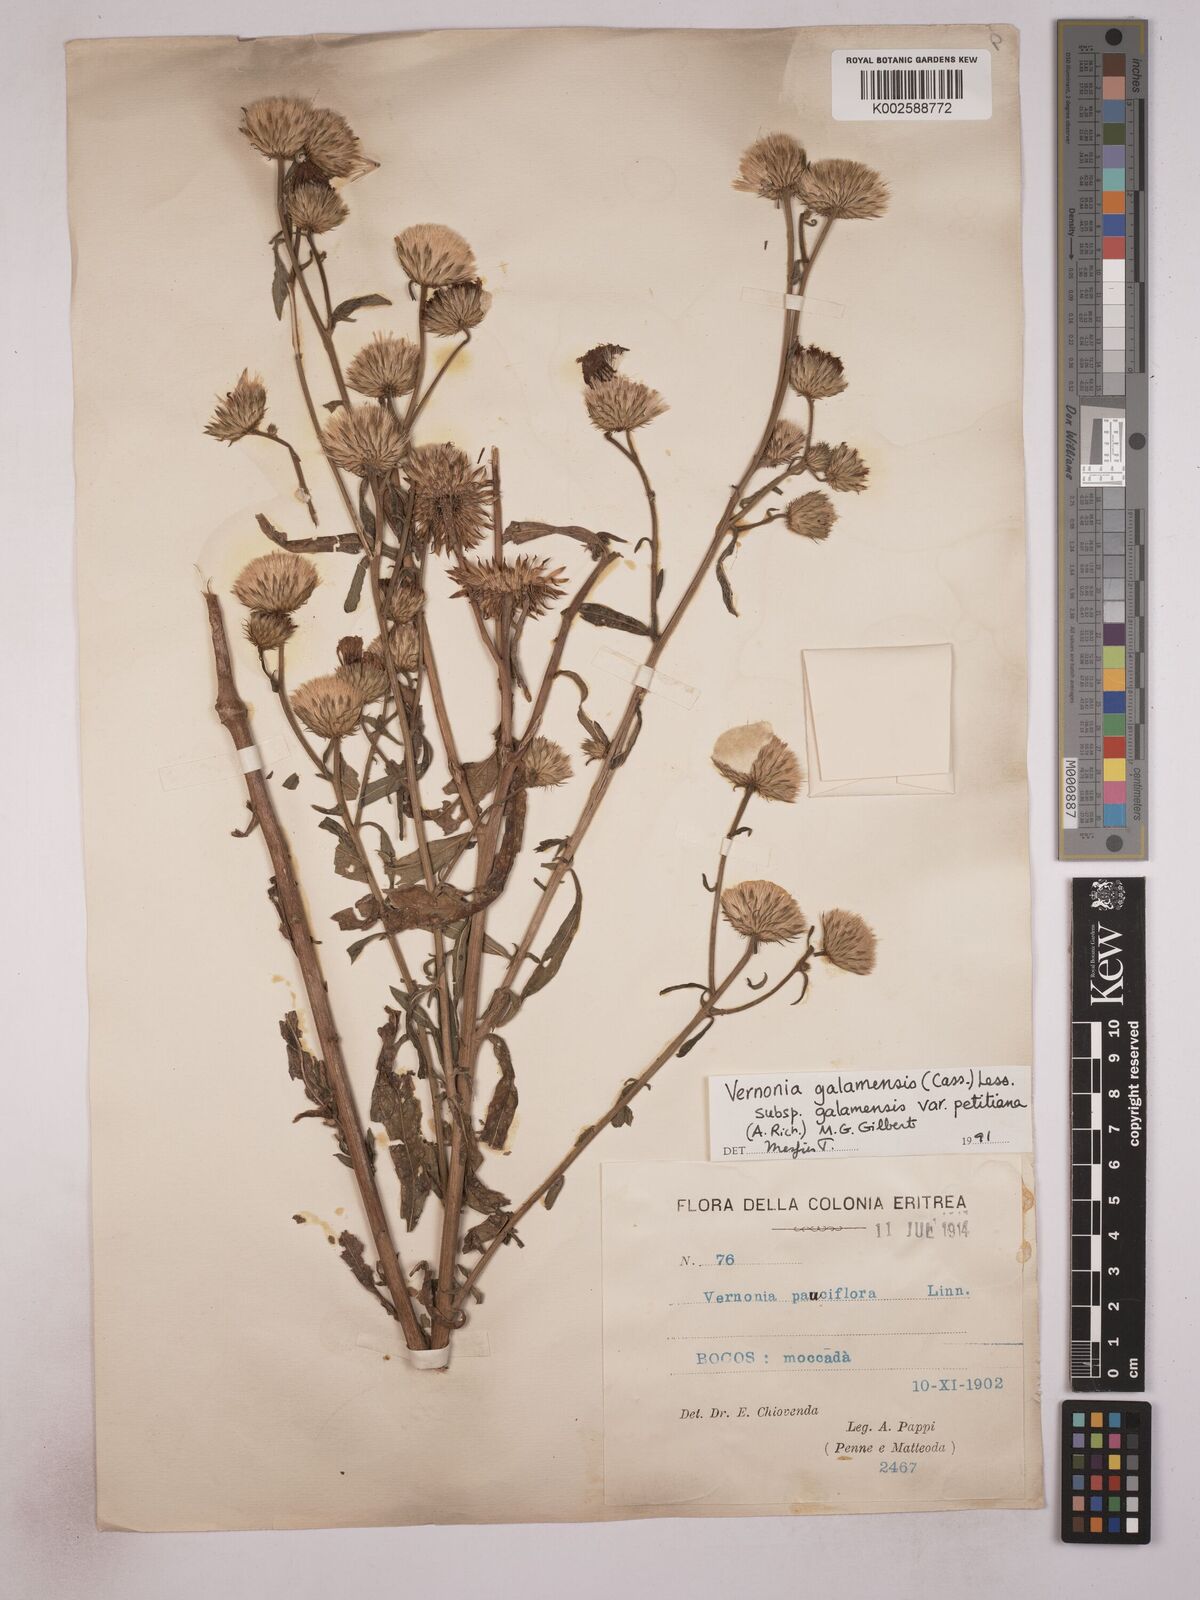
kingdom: Plantae
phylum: Tracheophyta
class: Magnoliopsida
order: Asterales
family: Asteraceae
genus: Vernonia
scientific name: Vernonia galamensis
